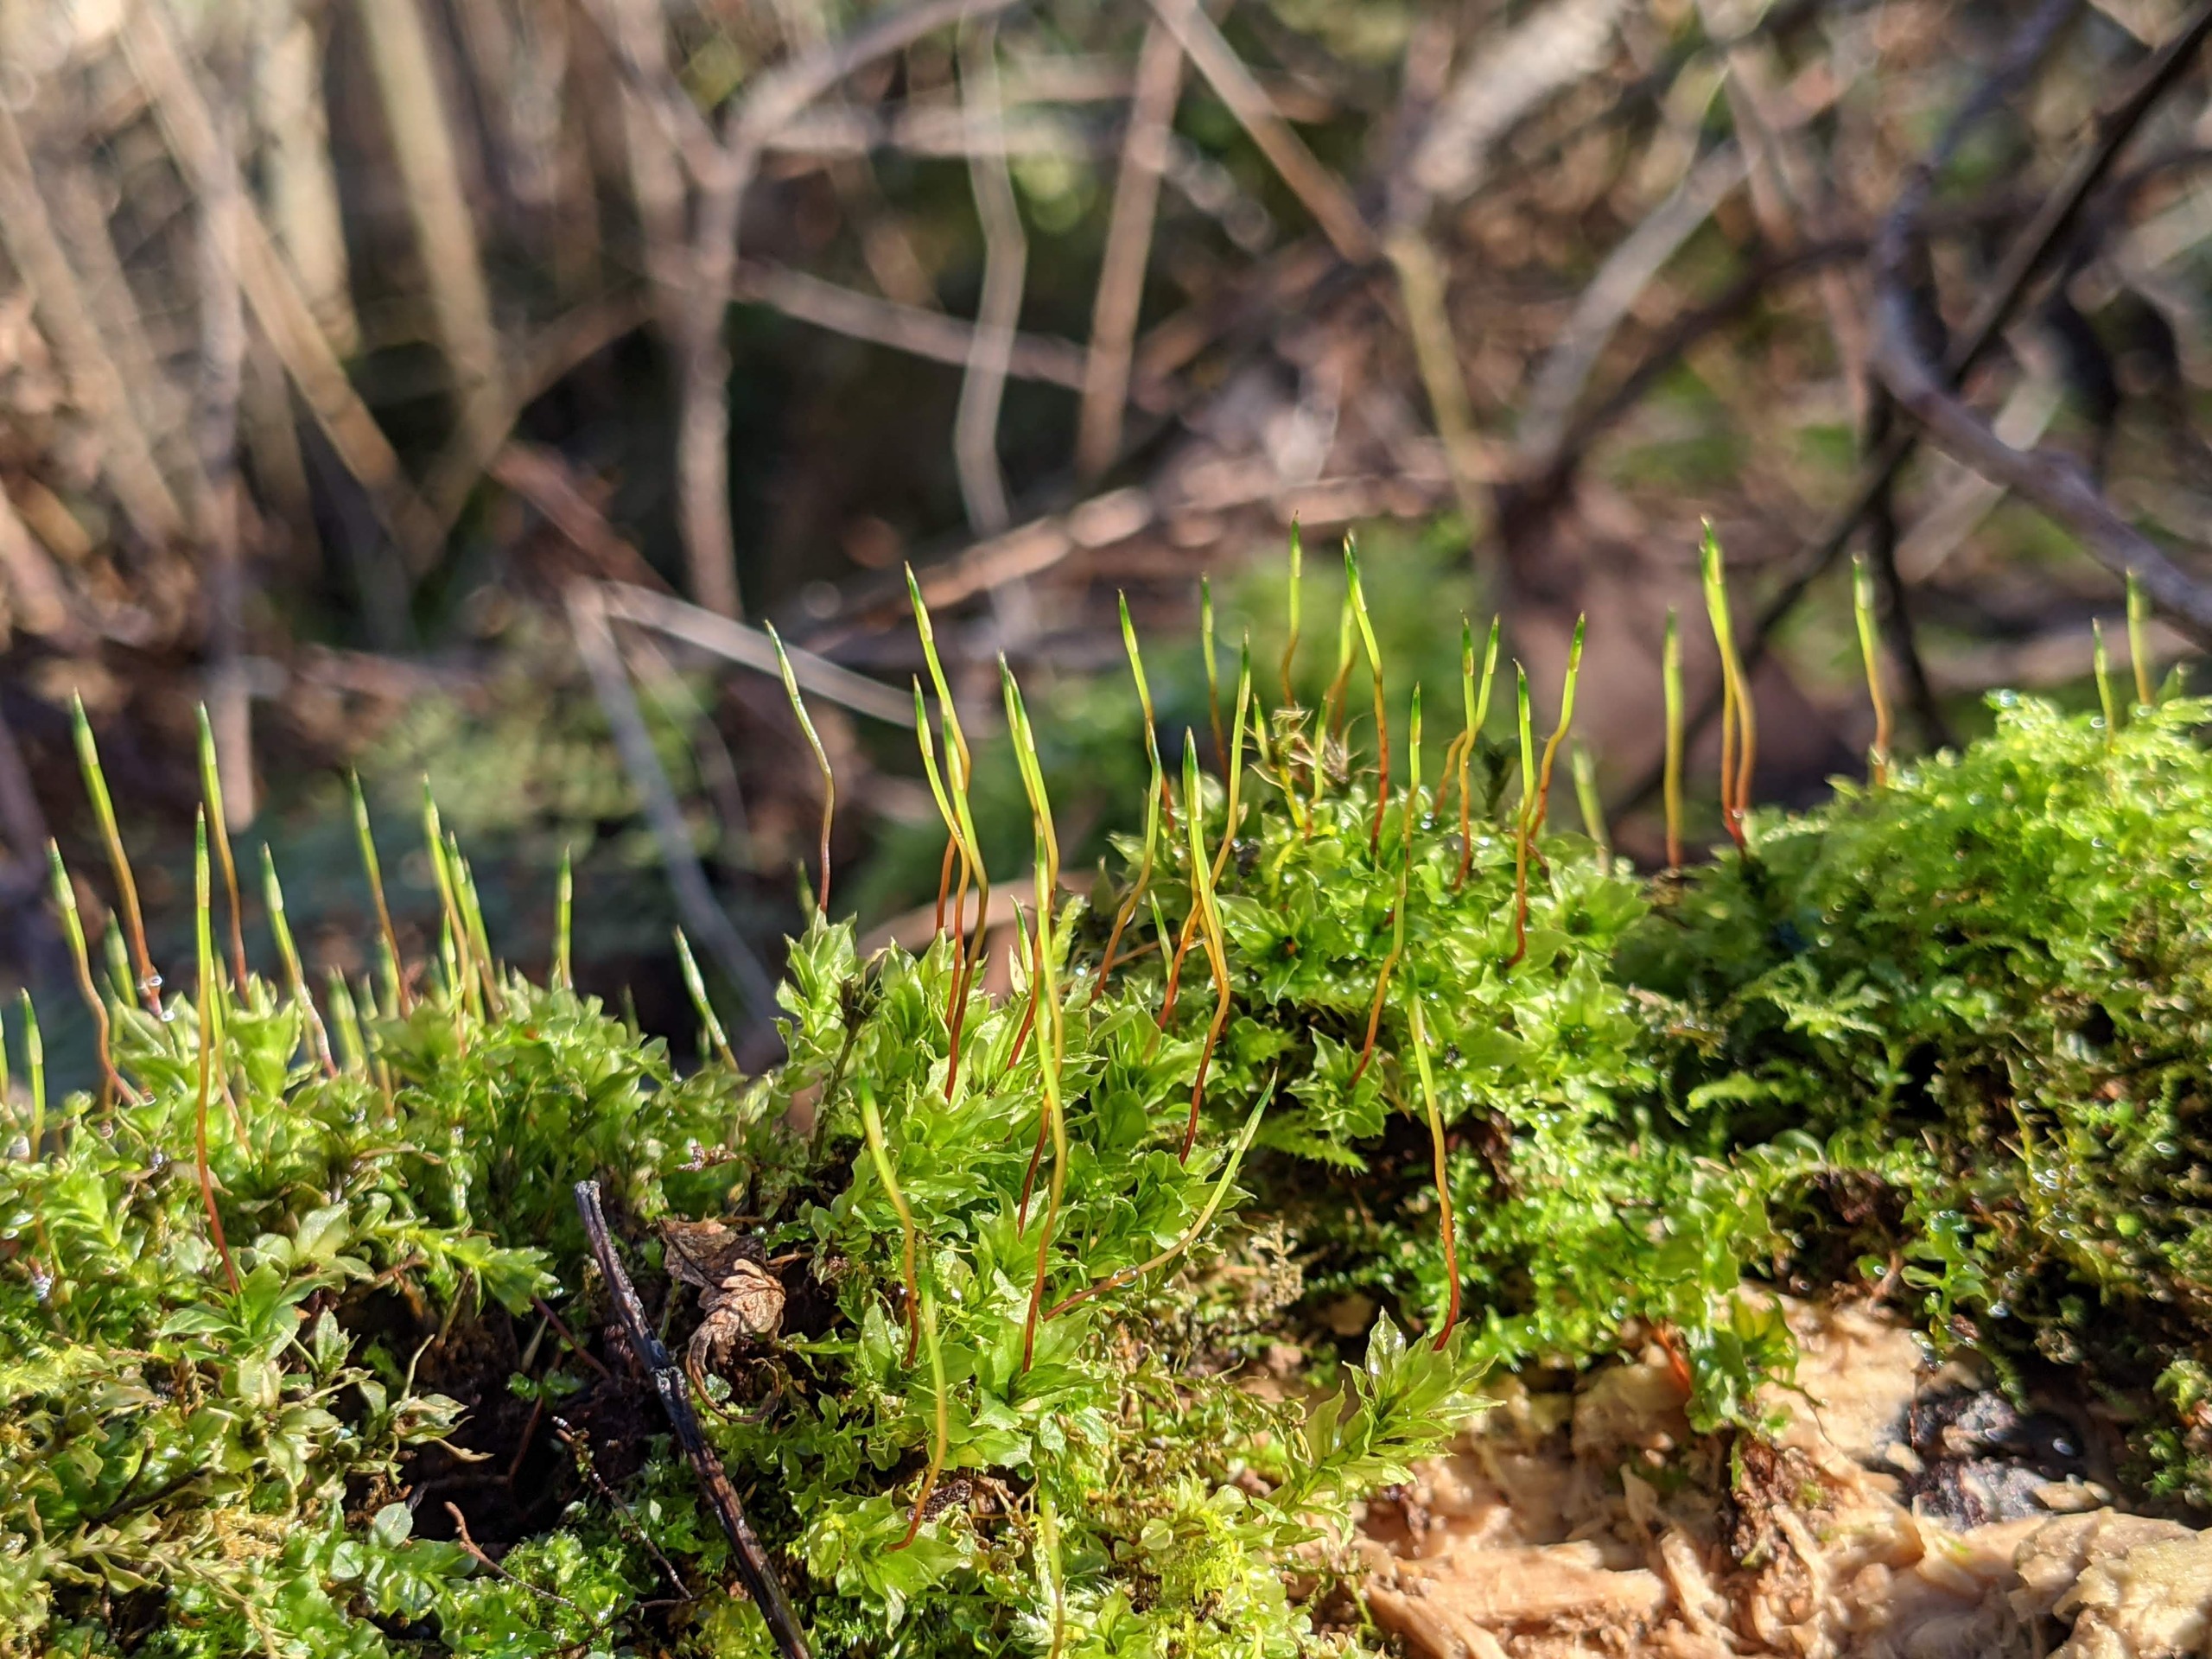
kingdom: Plantae
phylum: Bryophyta
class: Bryopsida
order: Bryales
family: Mniaceae
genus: Plagiomnium
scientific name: Plagiomnium cuspidatum
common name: Gærde-krybstjerne
